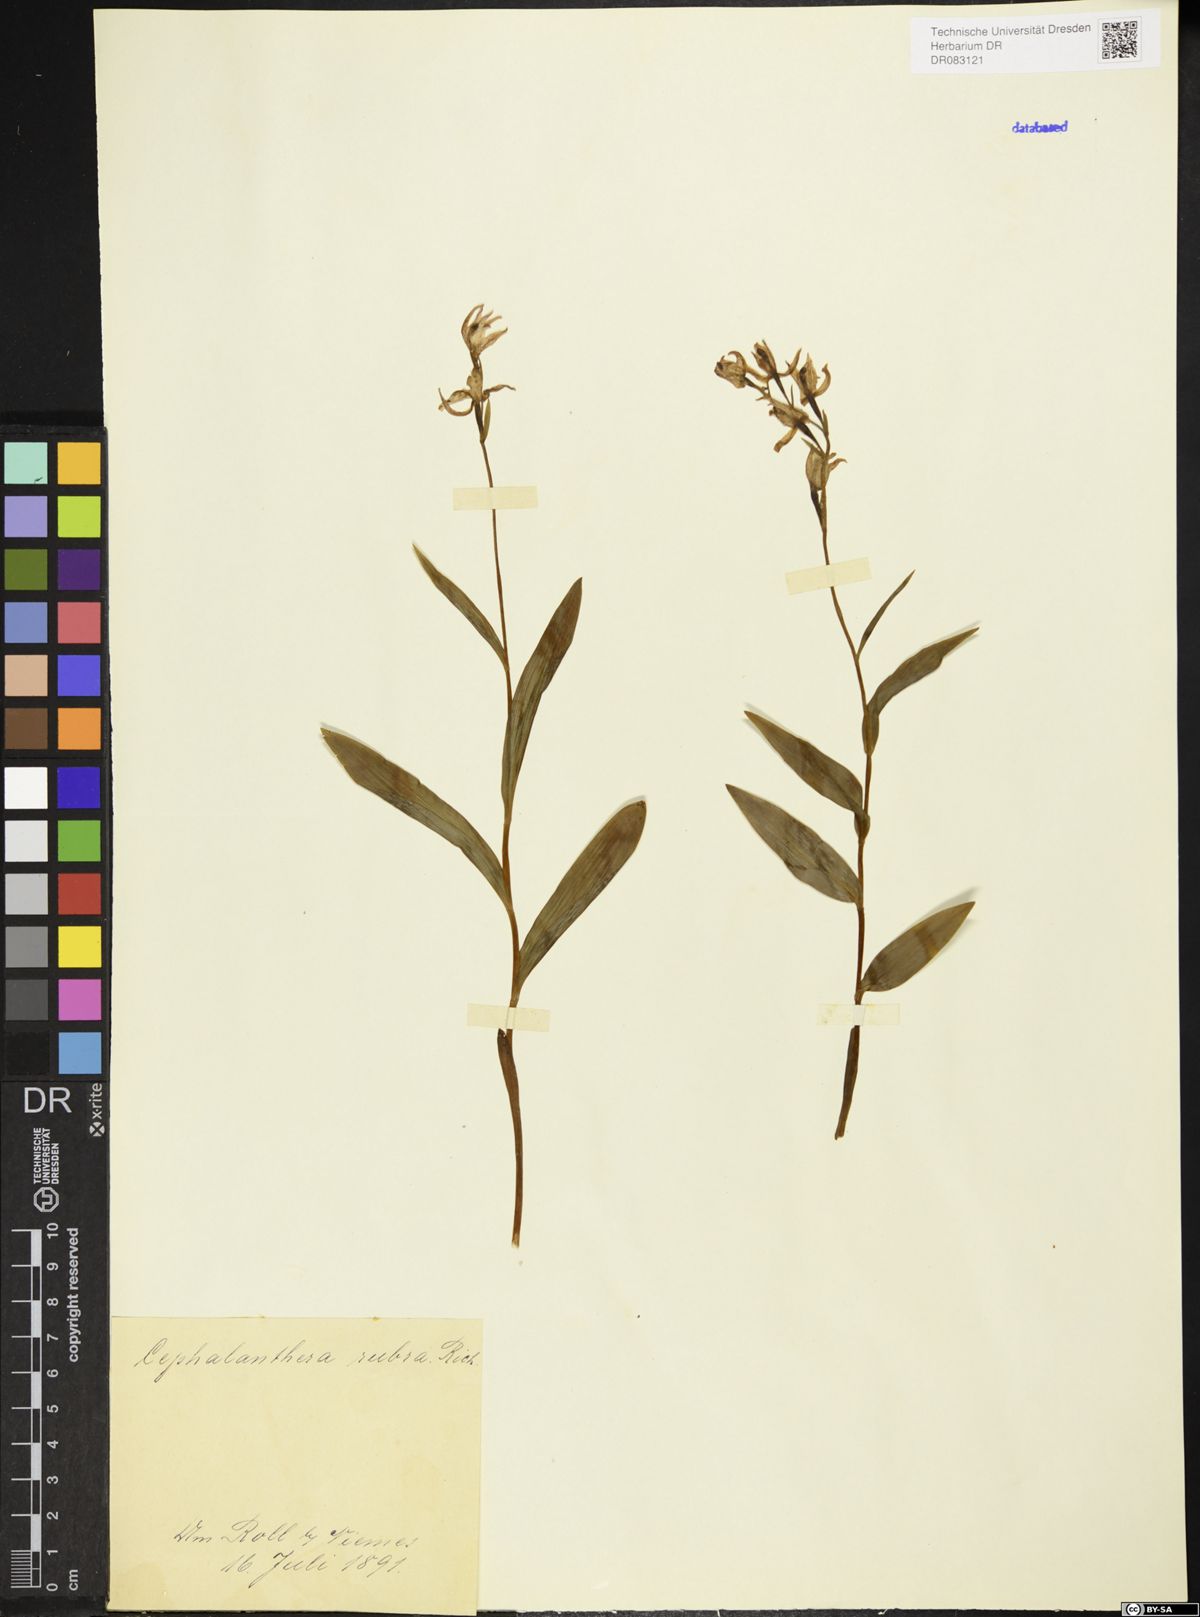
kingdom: Plantae
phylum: Tracheophyta
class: Liliopsida
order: Asparagales
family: Orchidaceae
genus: Cephalanthera
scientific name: Cephalanthera rubra
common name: Red helleborine
